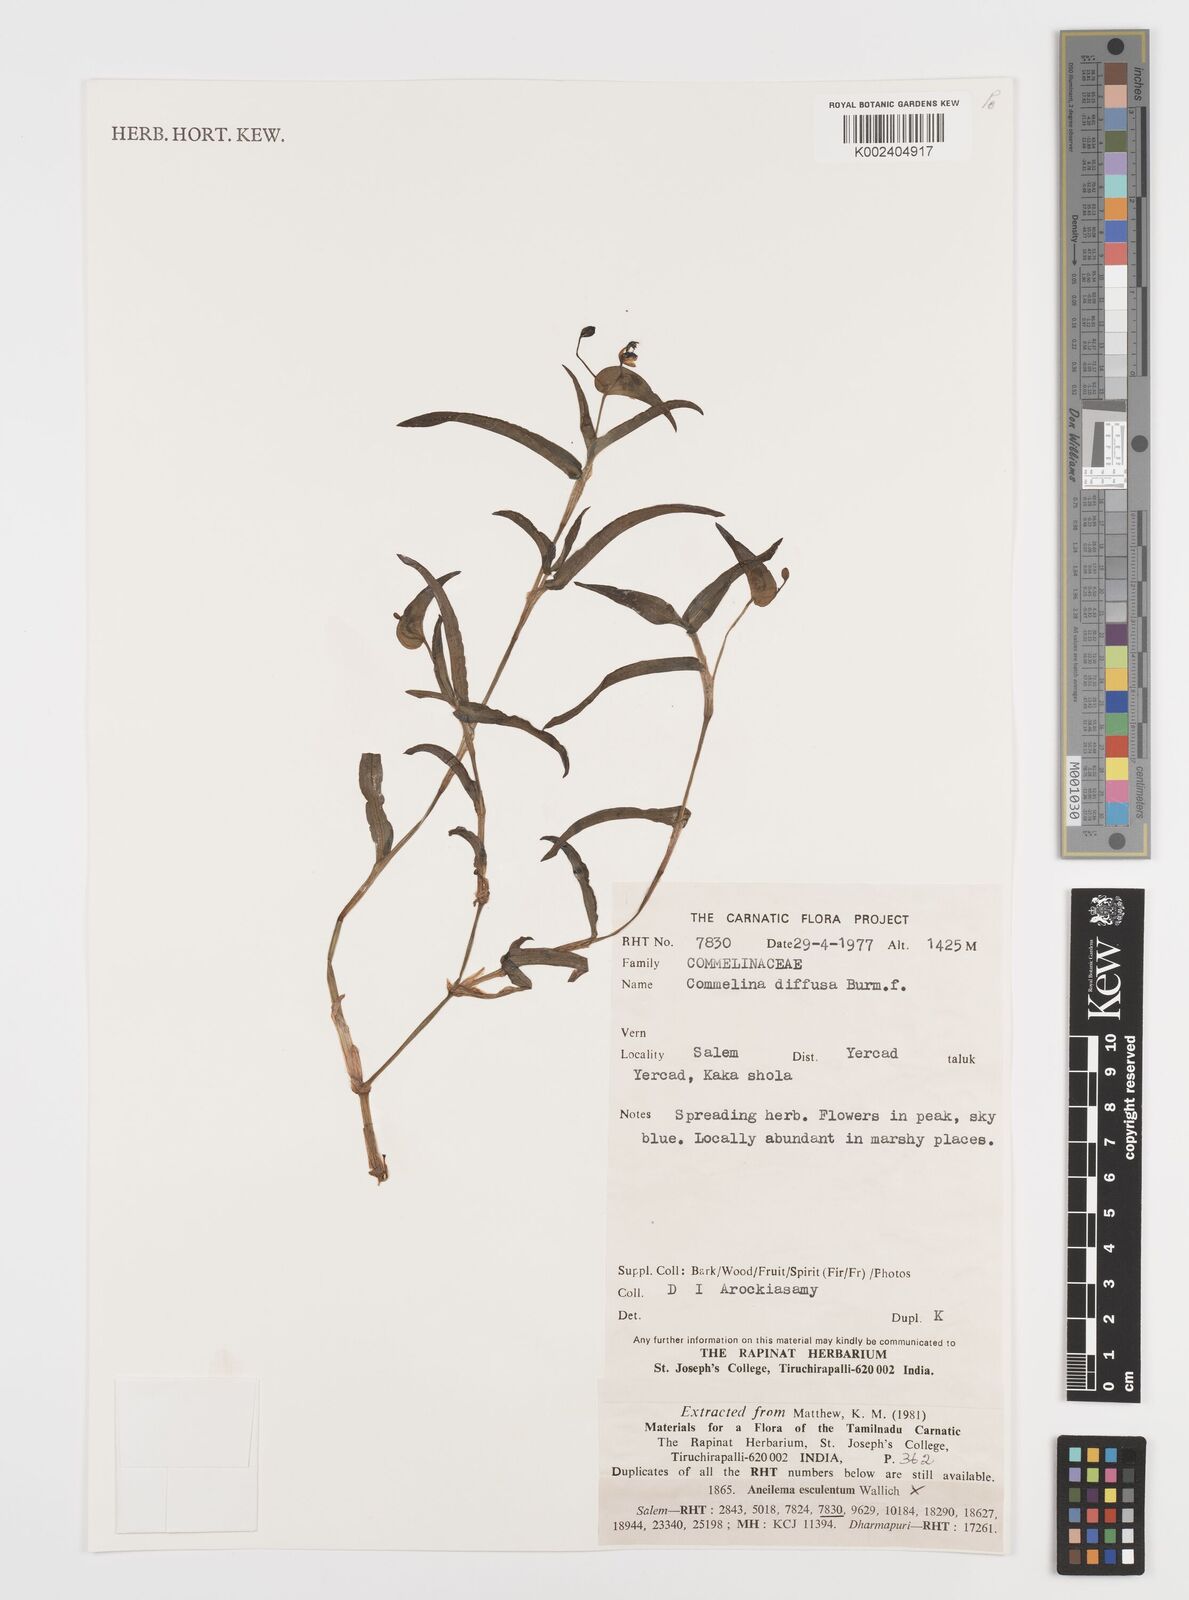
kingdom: Plantae
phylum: Tracheophyta
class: Liliopsida
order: Commelinales
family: Commelinaceae
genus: Commelina
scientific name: Commelina diffusa
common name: Climbing dayflower
